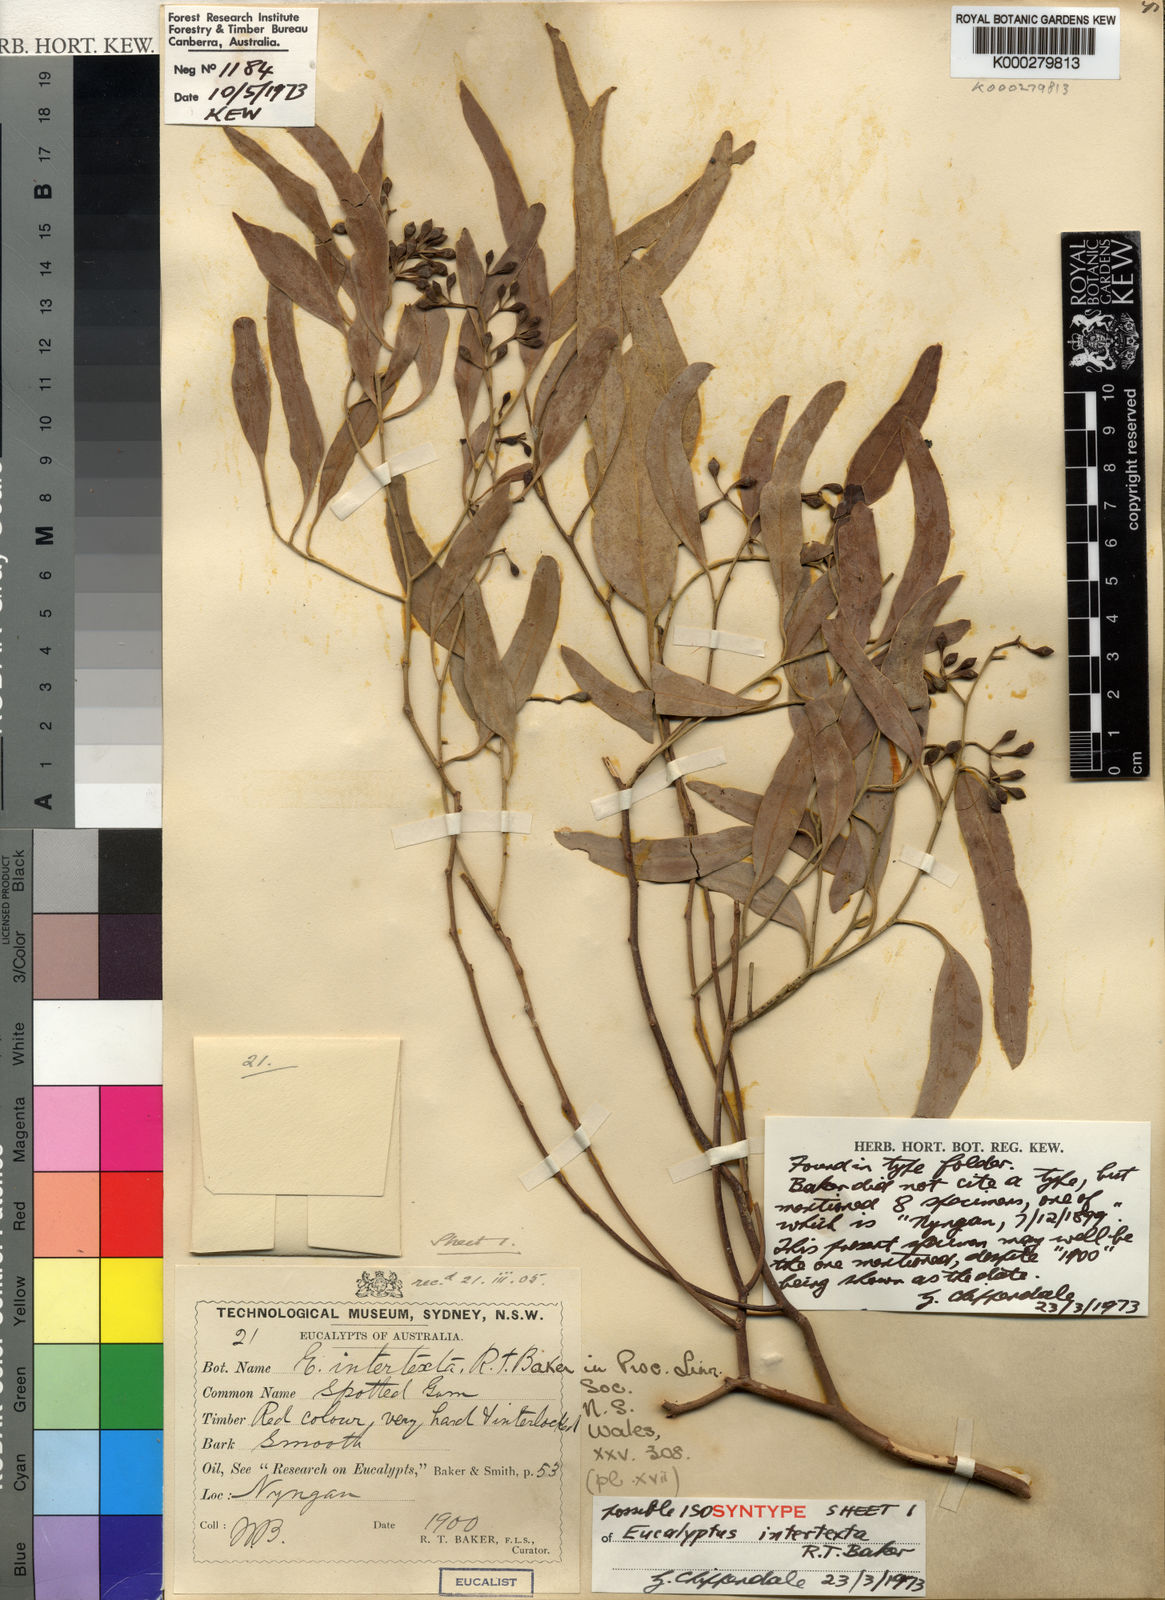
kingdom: Plantae
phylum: Tracheophyta
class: Magnoliopsida
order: Myrtales
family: Myrtaceae
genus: Eucalyptus
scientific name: Eucalyptus intertexta
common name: Bastard coolibah
